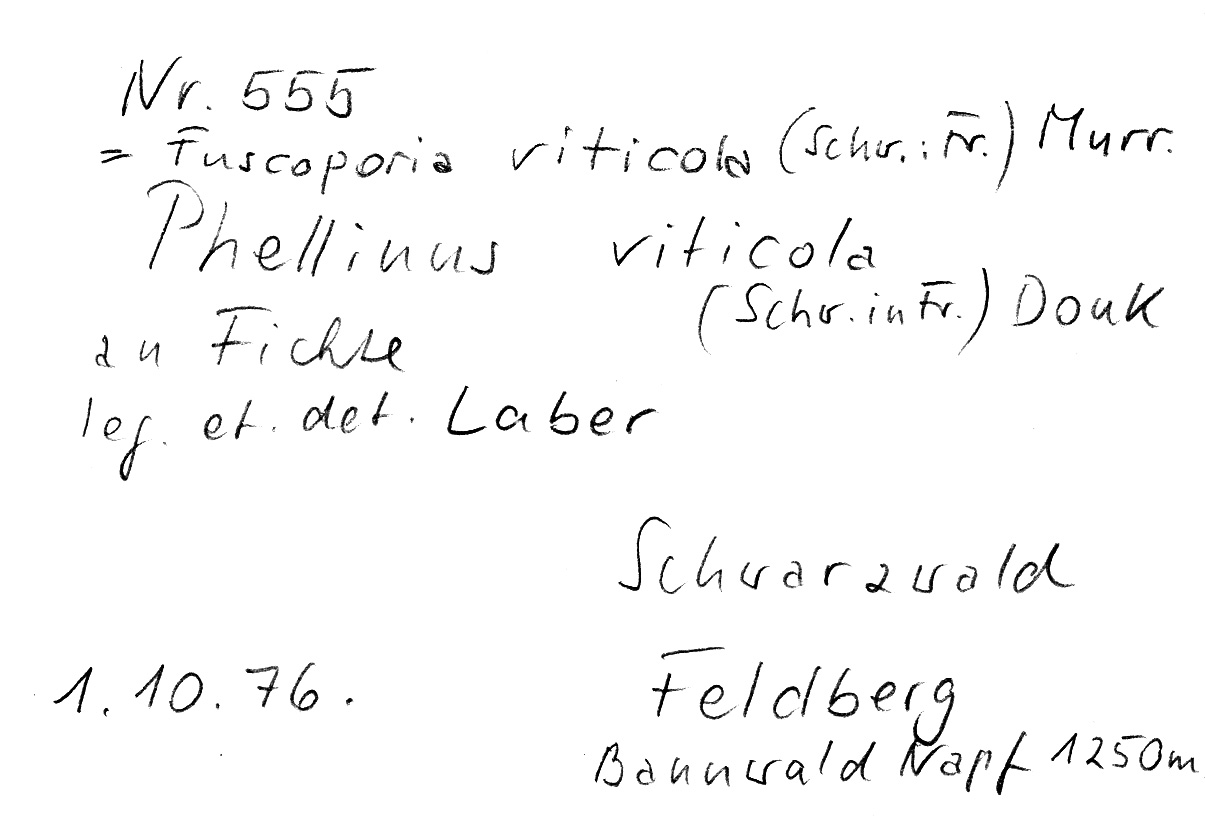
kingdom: Fungi
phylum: Basidiomycota
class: Agaricomycetes
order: Hymenochaetales
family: Hymenochaetaceae
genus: Phellinus
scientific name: Phellinus viticola
